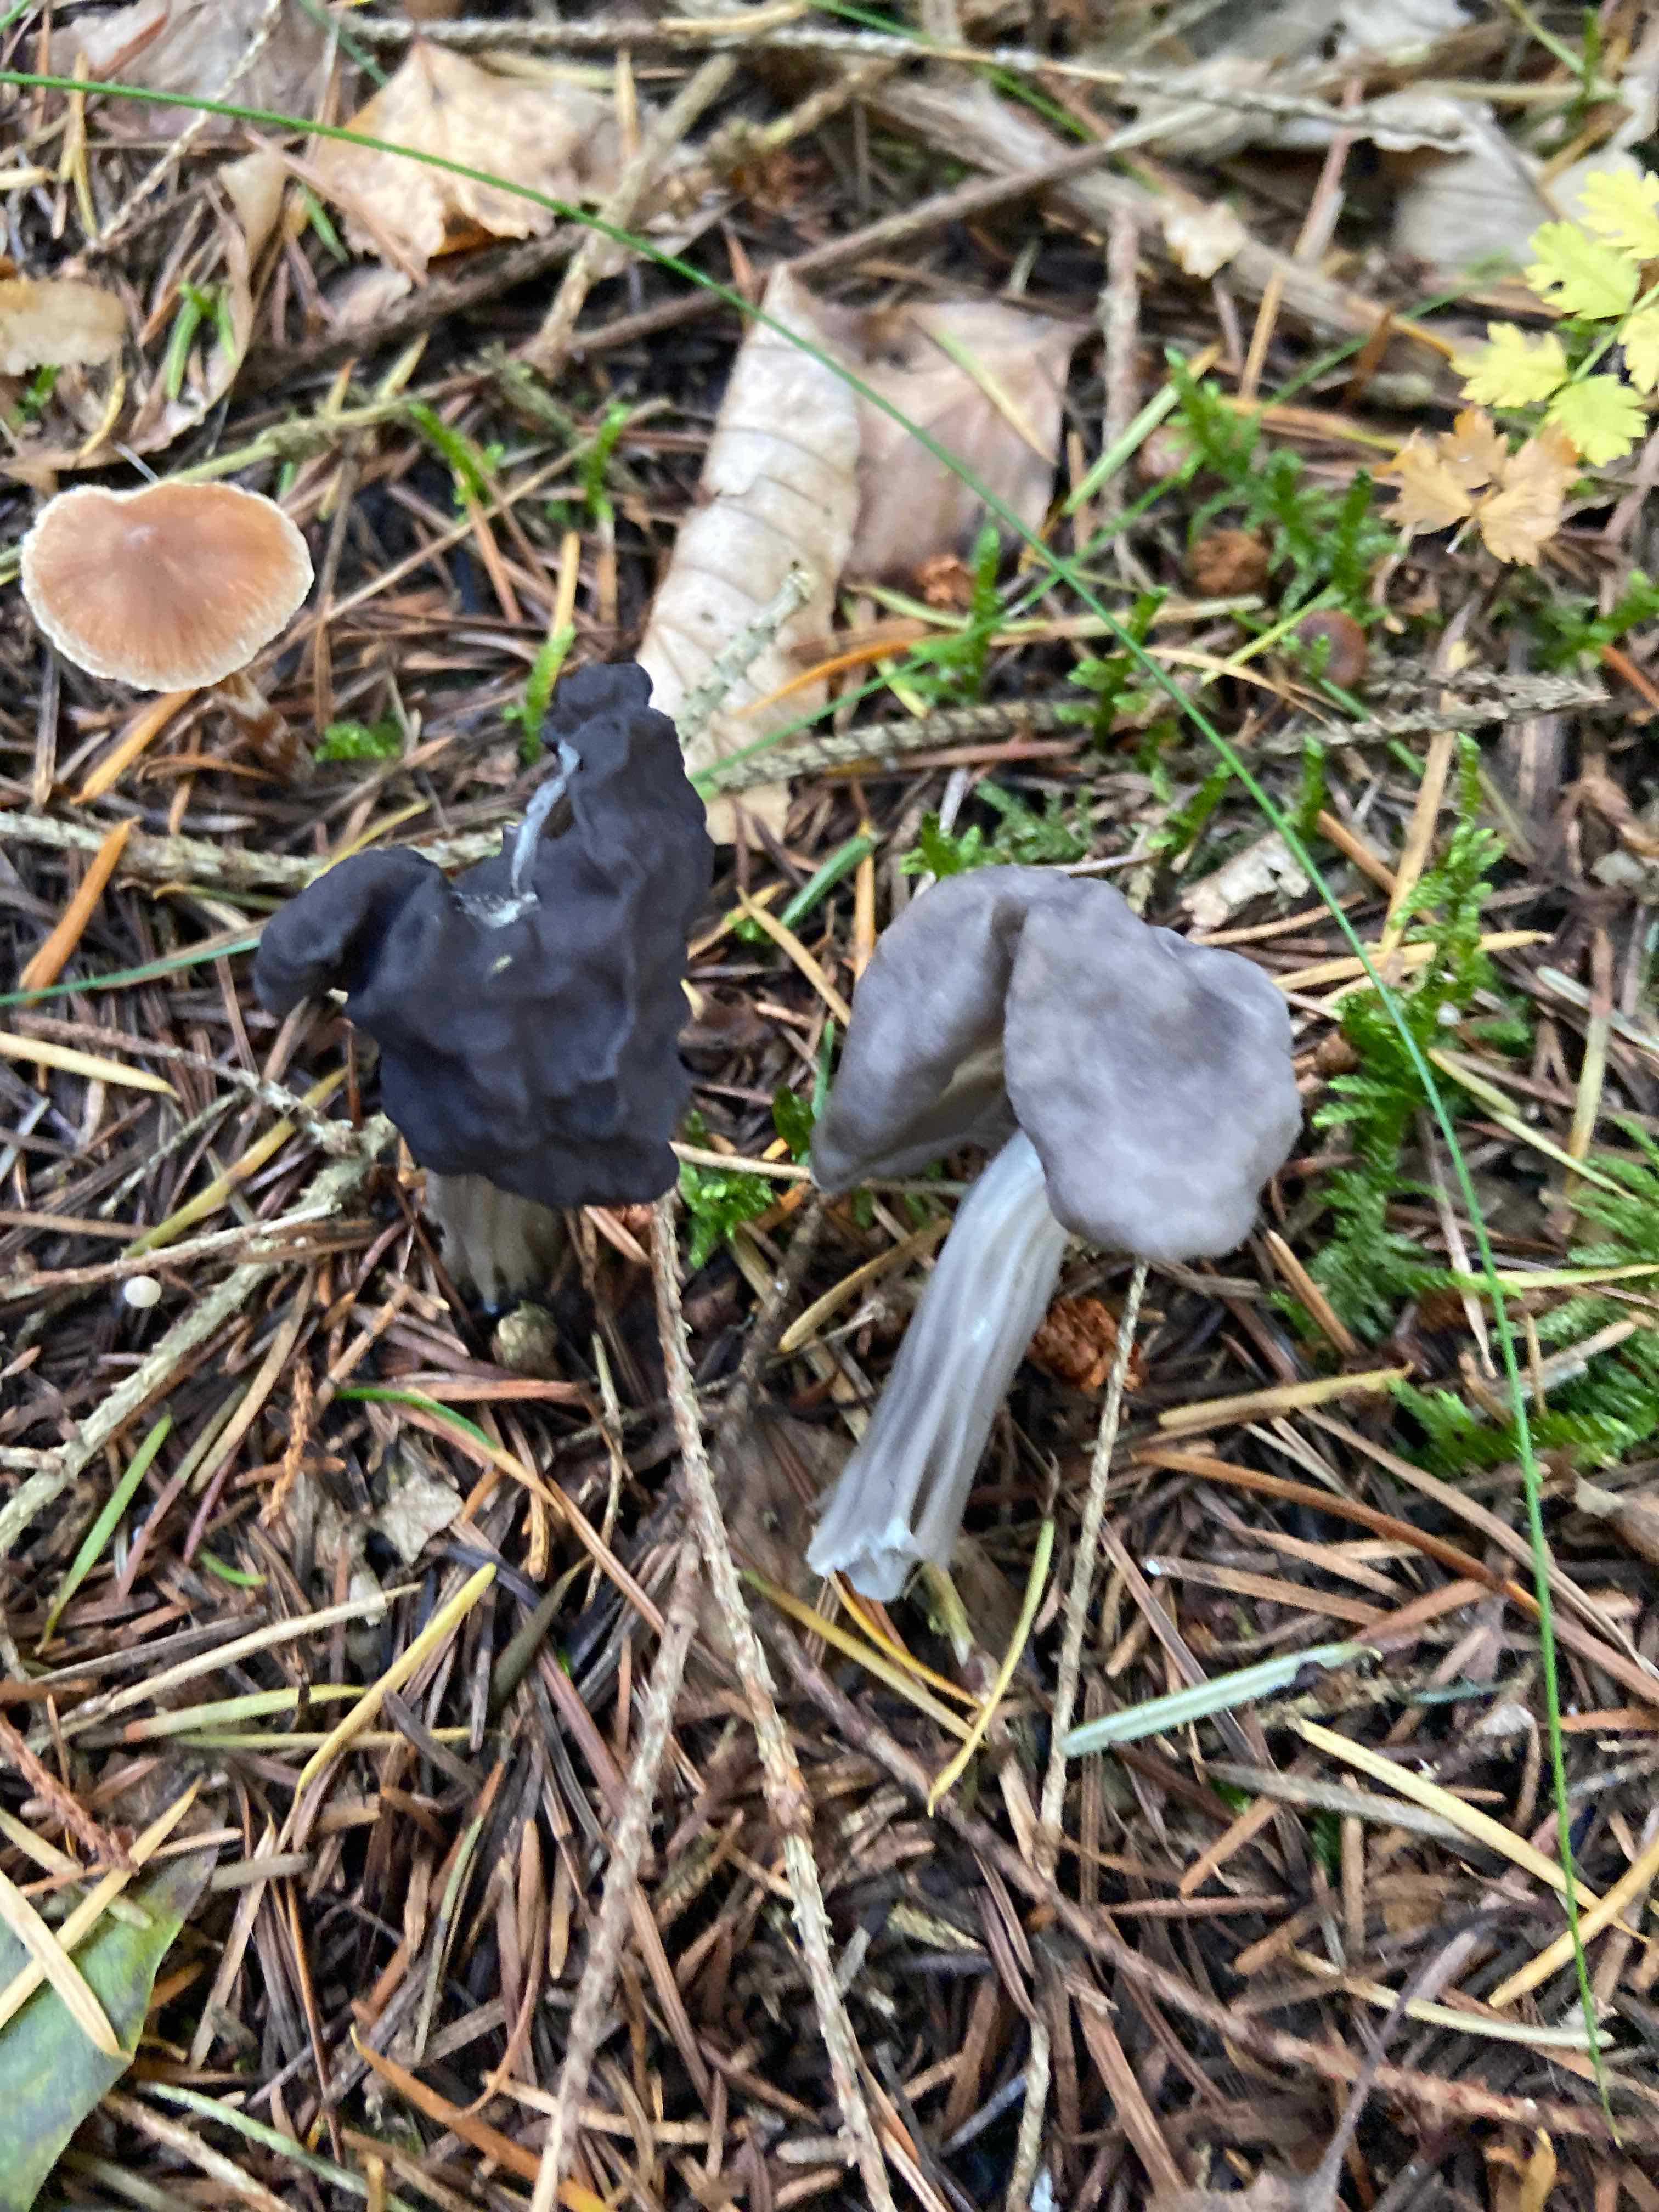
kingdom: Fungi
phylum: Ascomycota
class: Pezizomycetes
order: Pezizales
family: Helvellaceae
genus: Helvella
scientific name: Helvella lacunosa
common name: grubet foldhat
